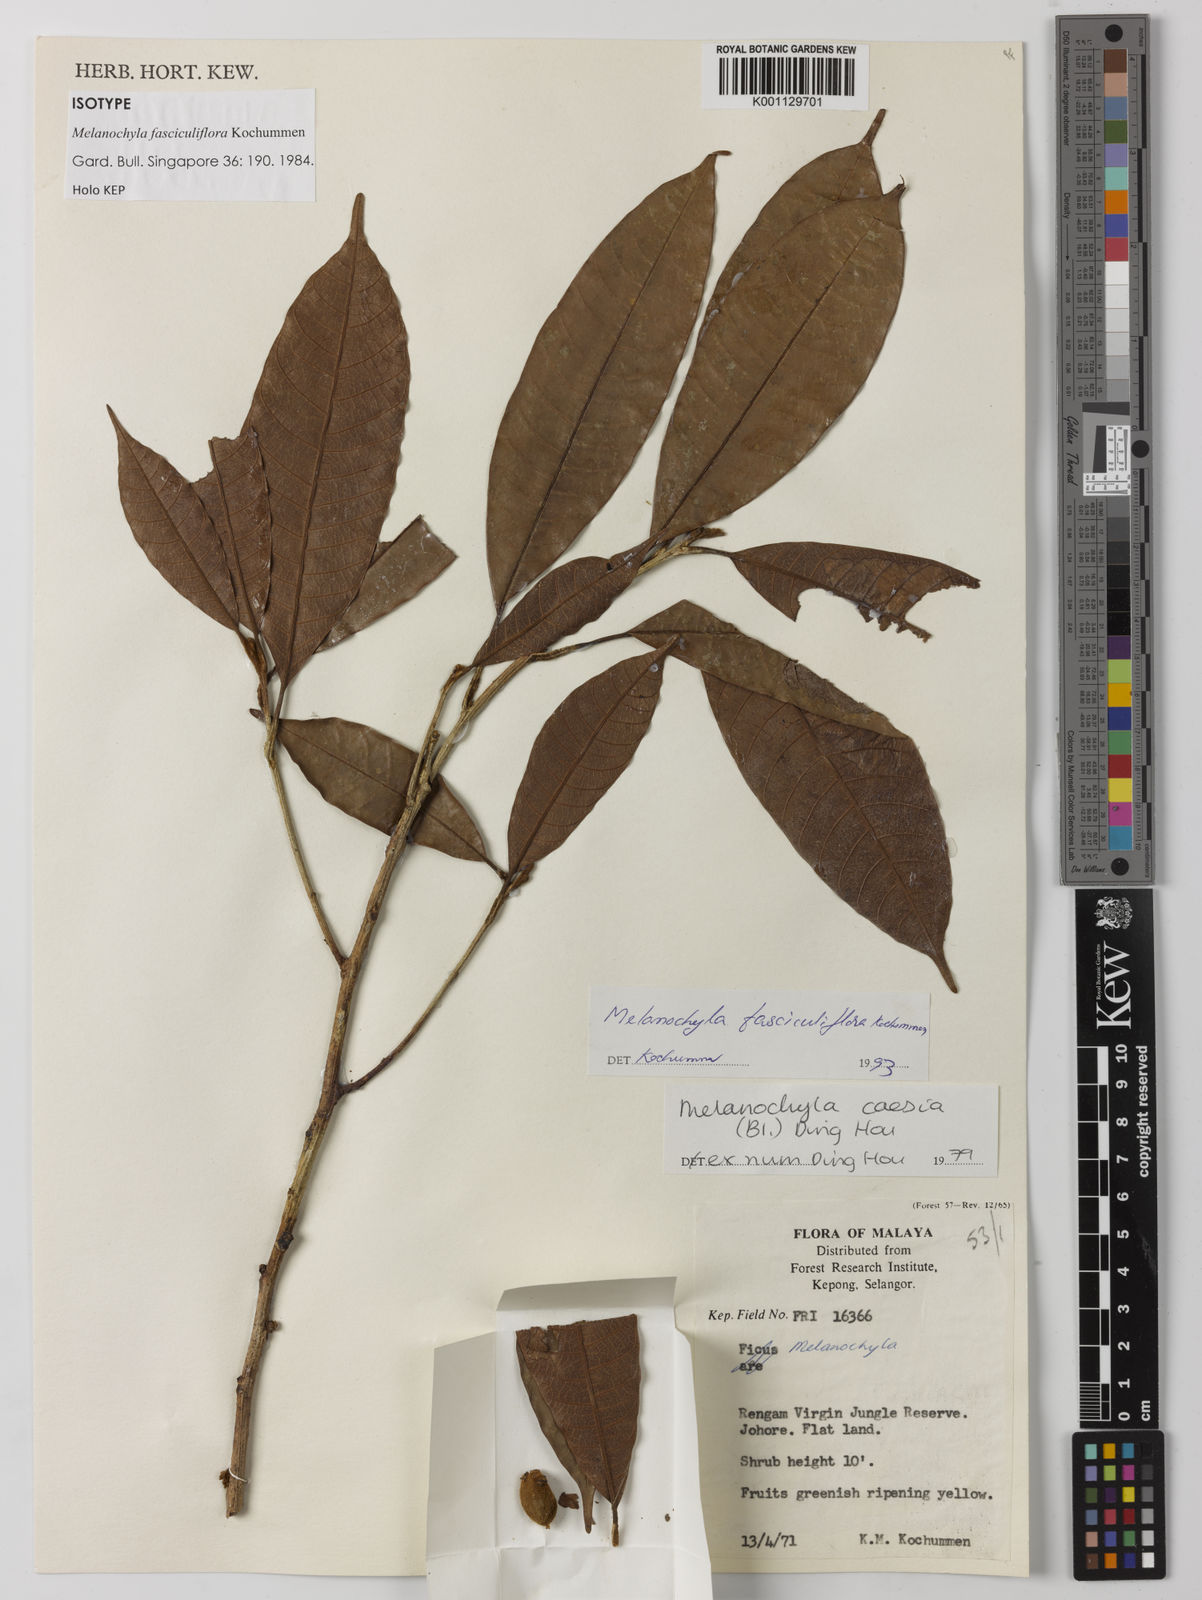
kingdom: Plantae
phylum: Tracheophyta
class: Magnoliopsida
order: Sapindales
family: Anacardiaceae
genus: Melanochyla
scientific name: Melanochyla fasciculiflora
